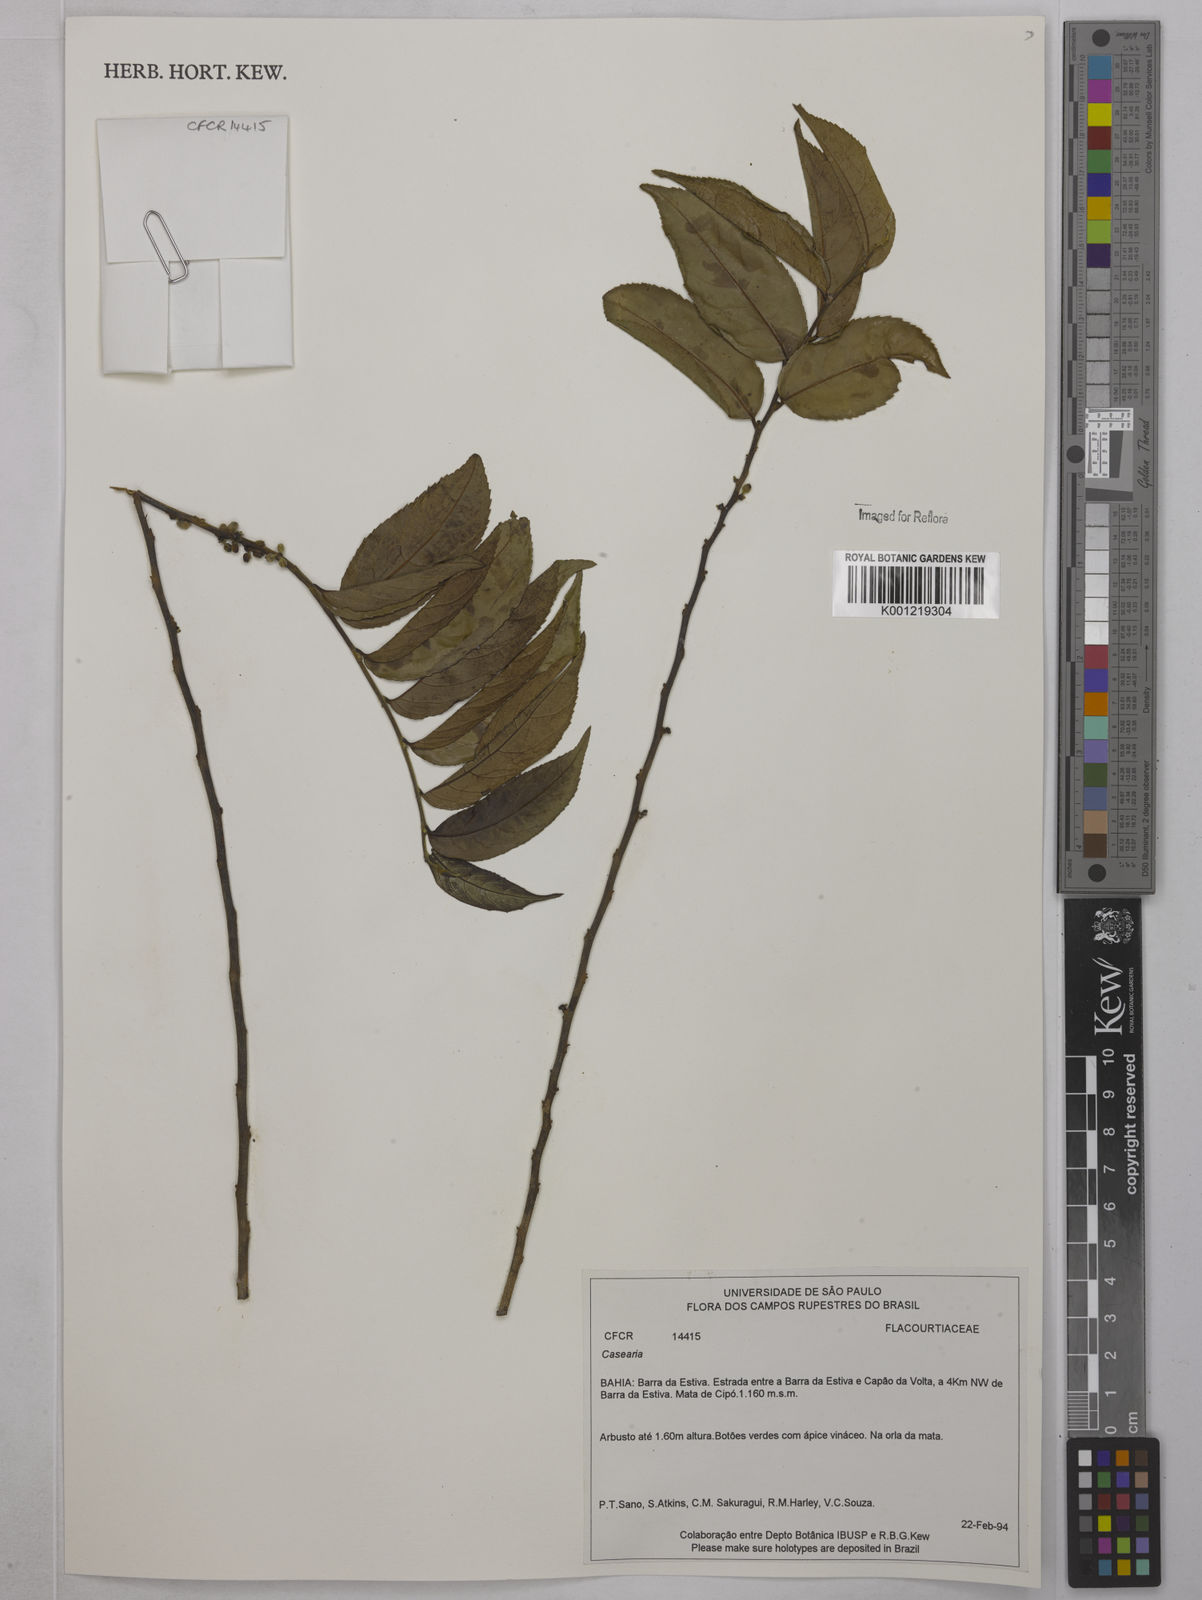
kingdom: Plantae
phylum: Tracheophyta
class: Magnoliopsida
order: Malpighiales
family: Salicaceae
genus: Casearia
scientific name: Casearia
